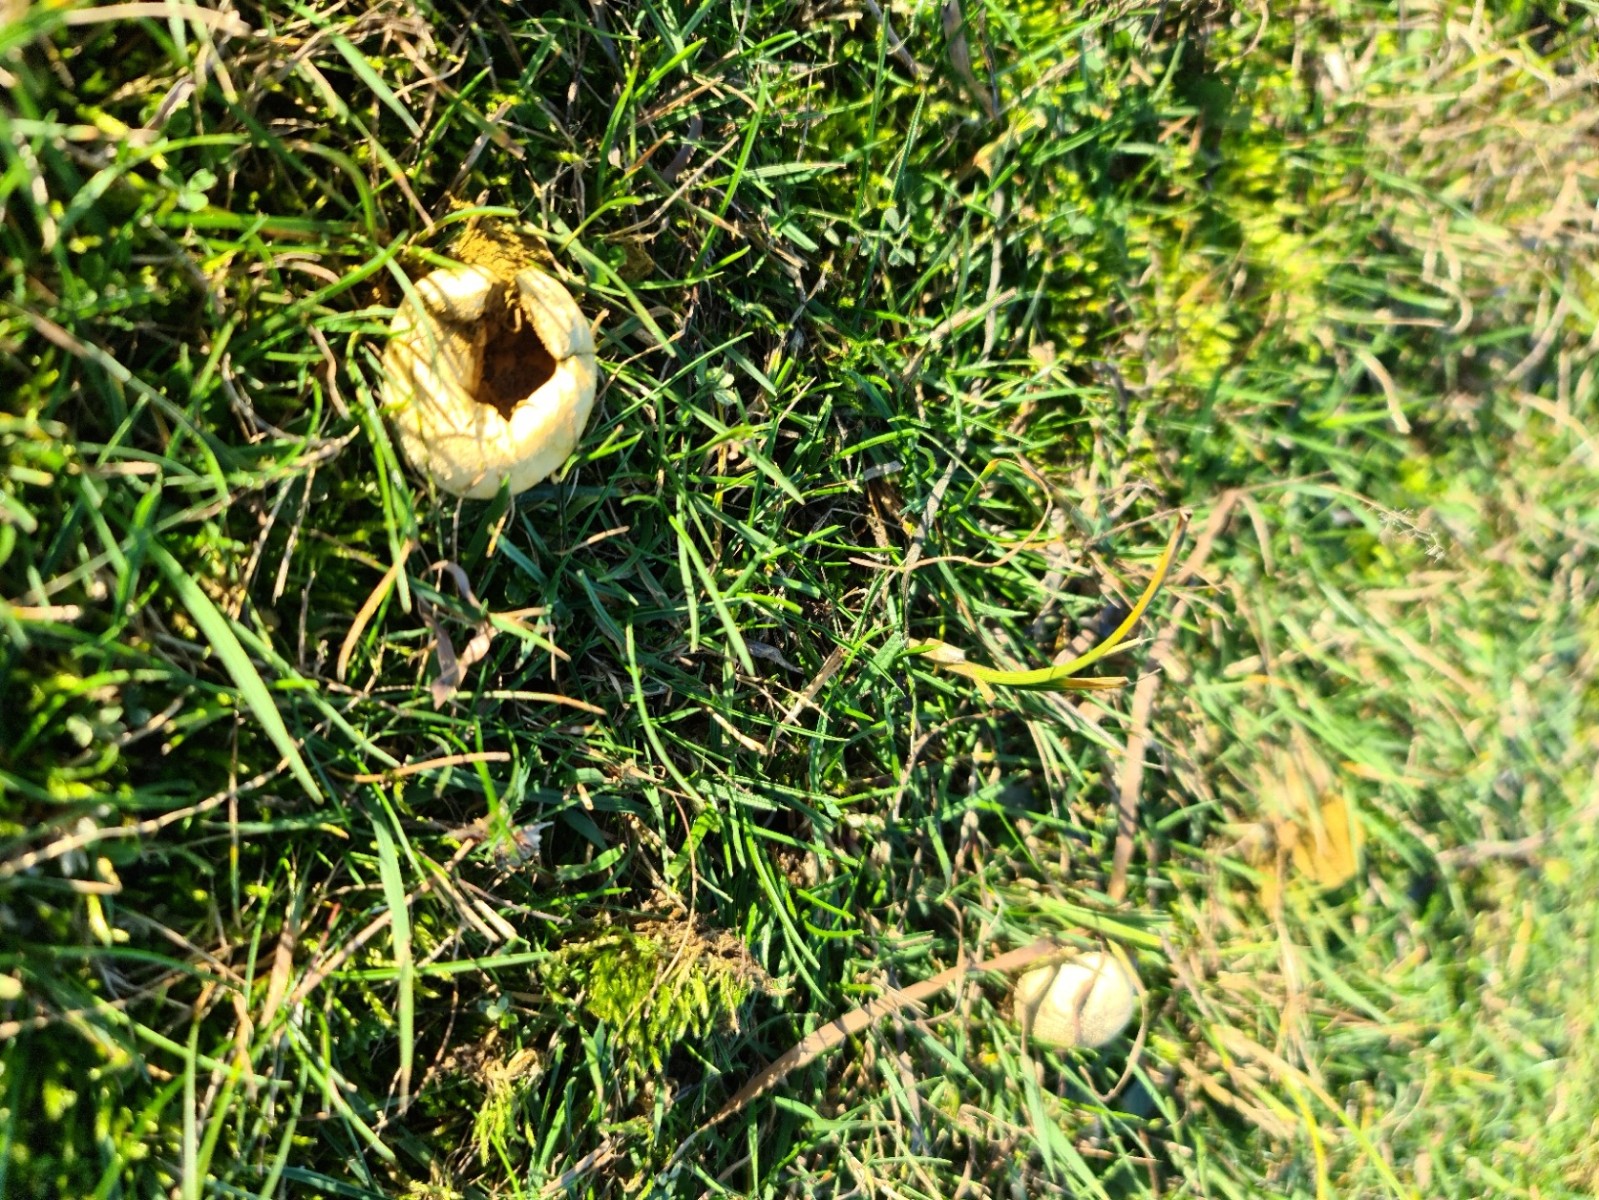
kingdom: Fungi
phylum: Basidiomycota
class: Agaricomycetes
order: Agaricales
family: Agaricaceae
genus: Lycoperdon
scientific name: Lycoperdon
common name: støvbold
